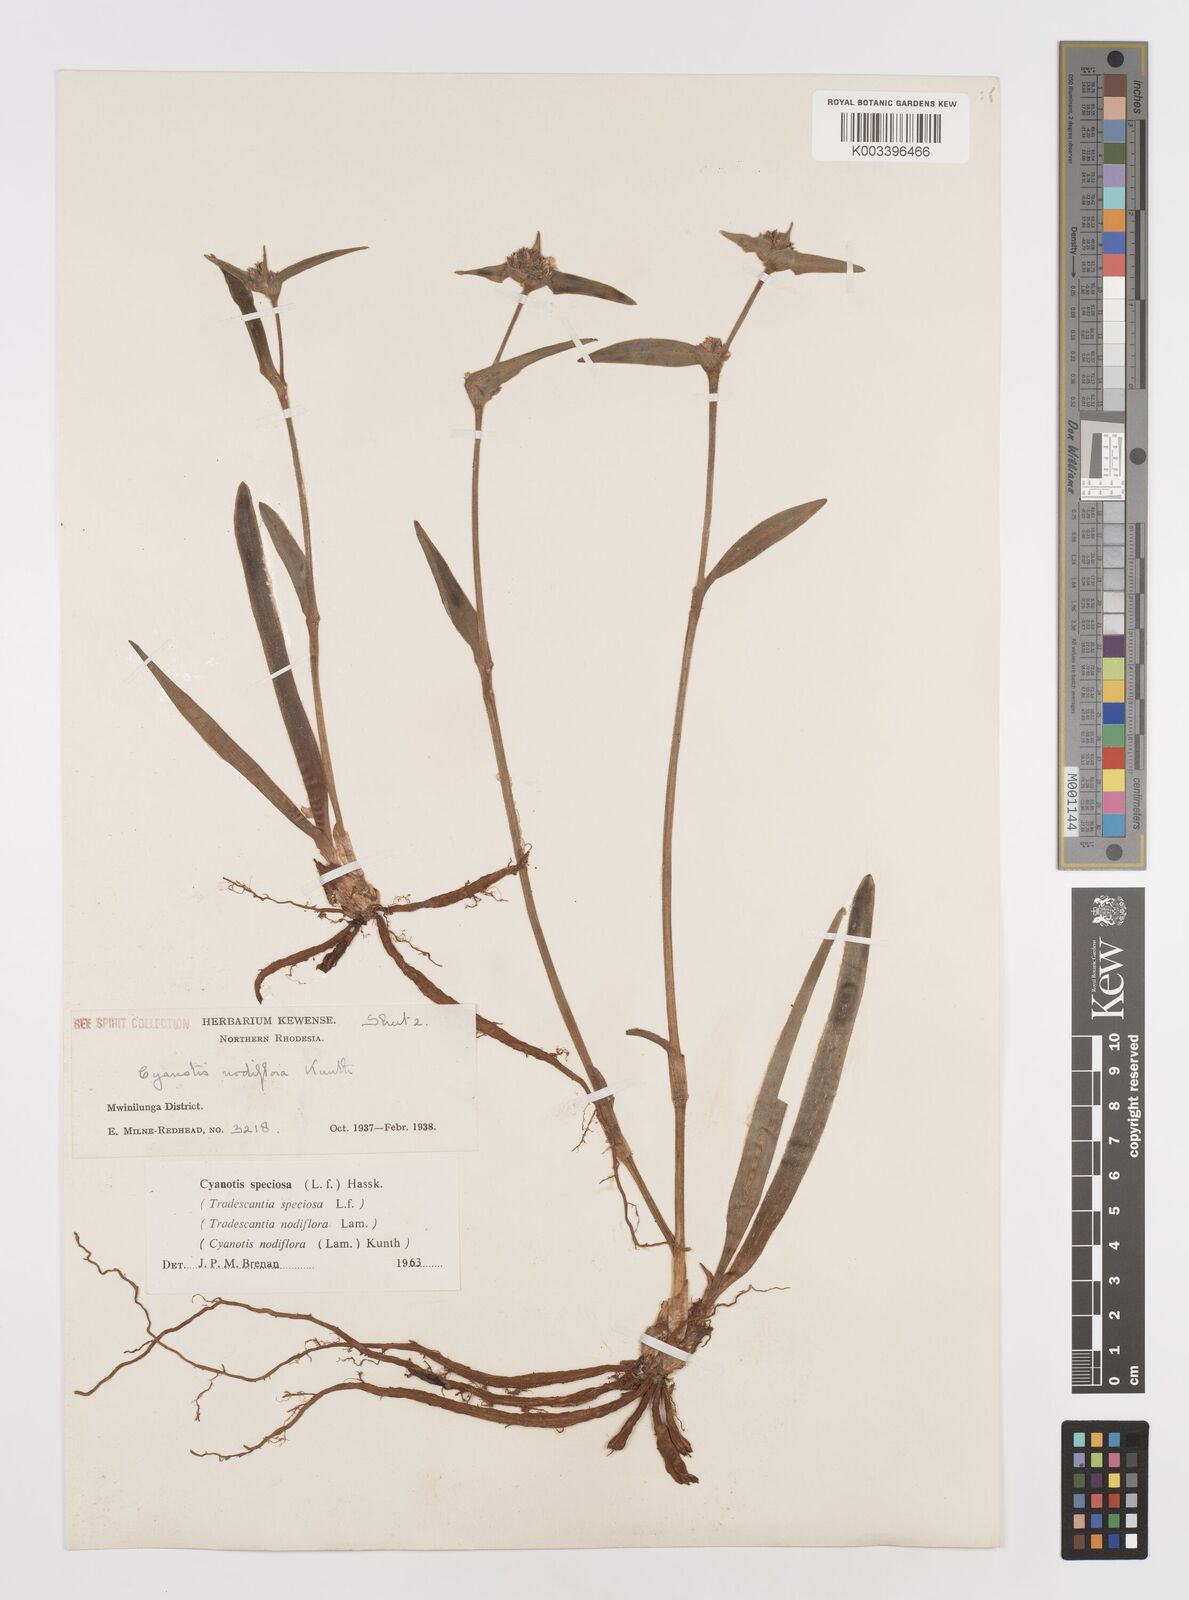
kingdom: Plantae
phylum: Tracheophyta
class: Liliopsida
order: Commelinales
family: Commelinaceae
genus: Cyanotis
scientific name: Cyanotis speciosa
